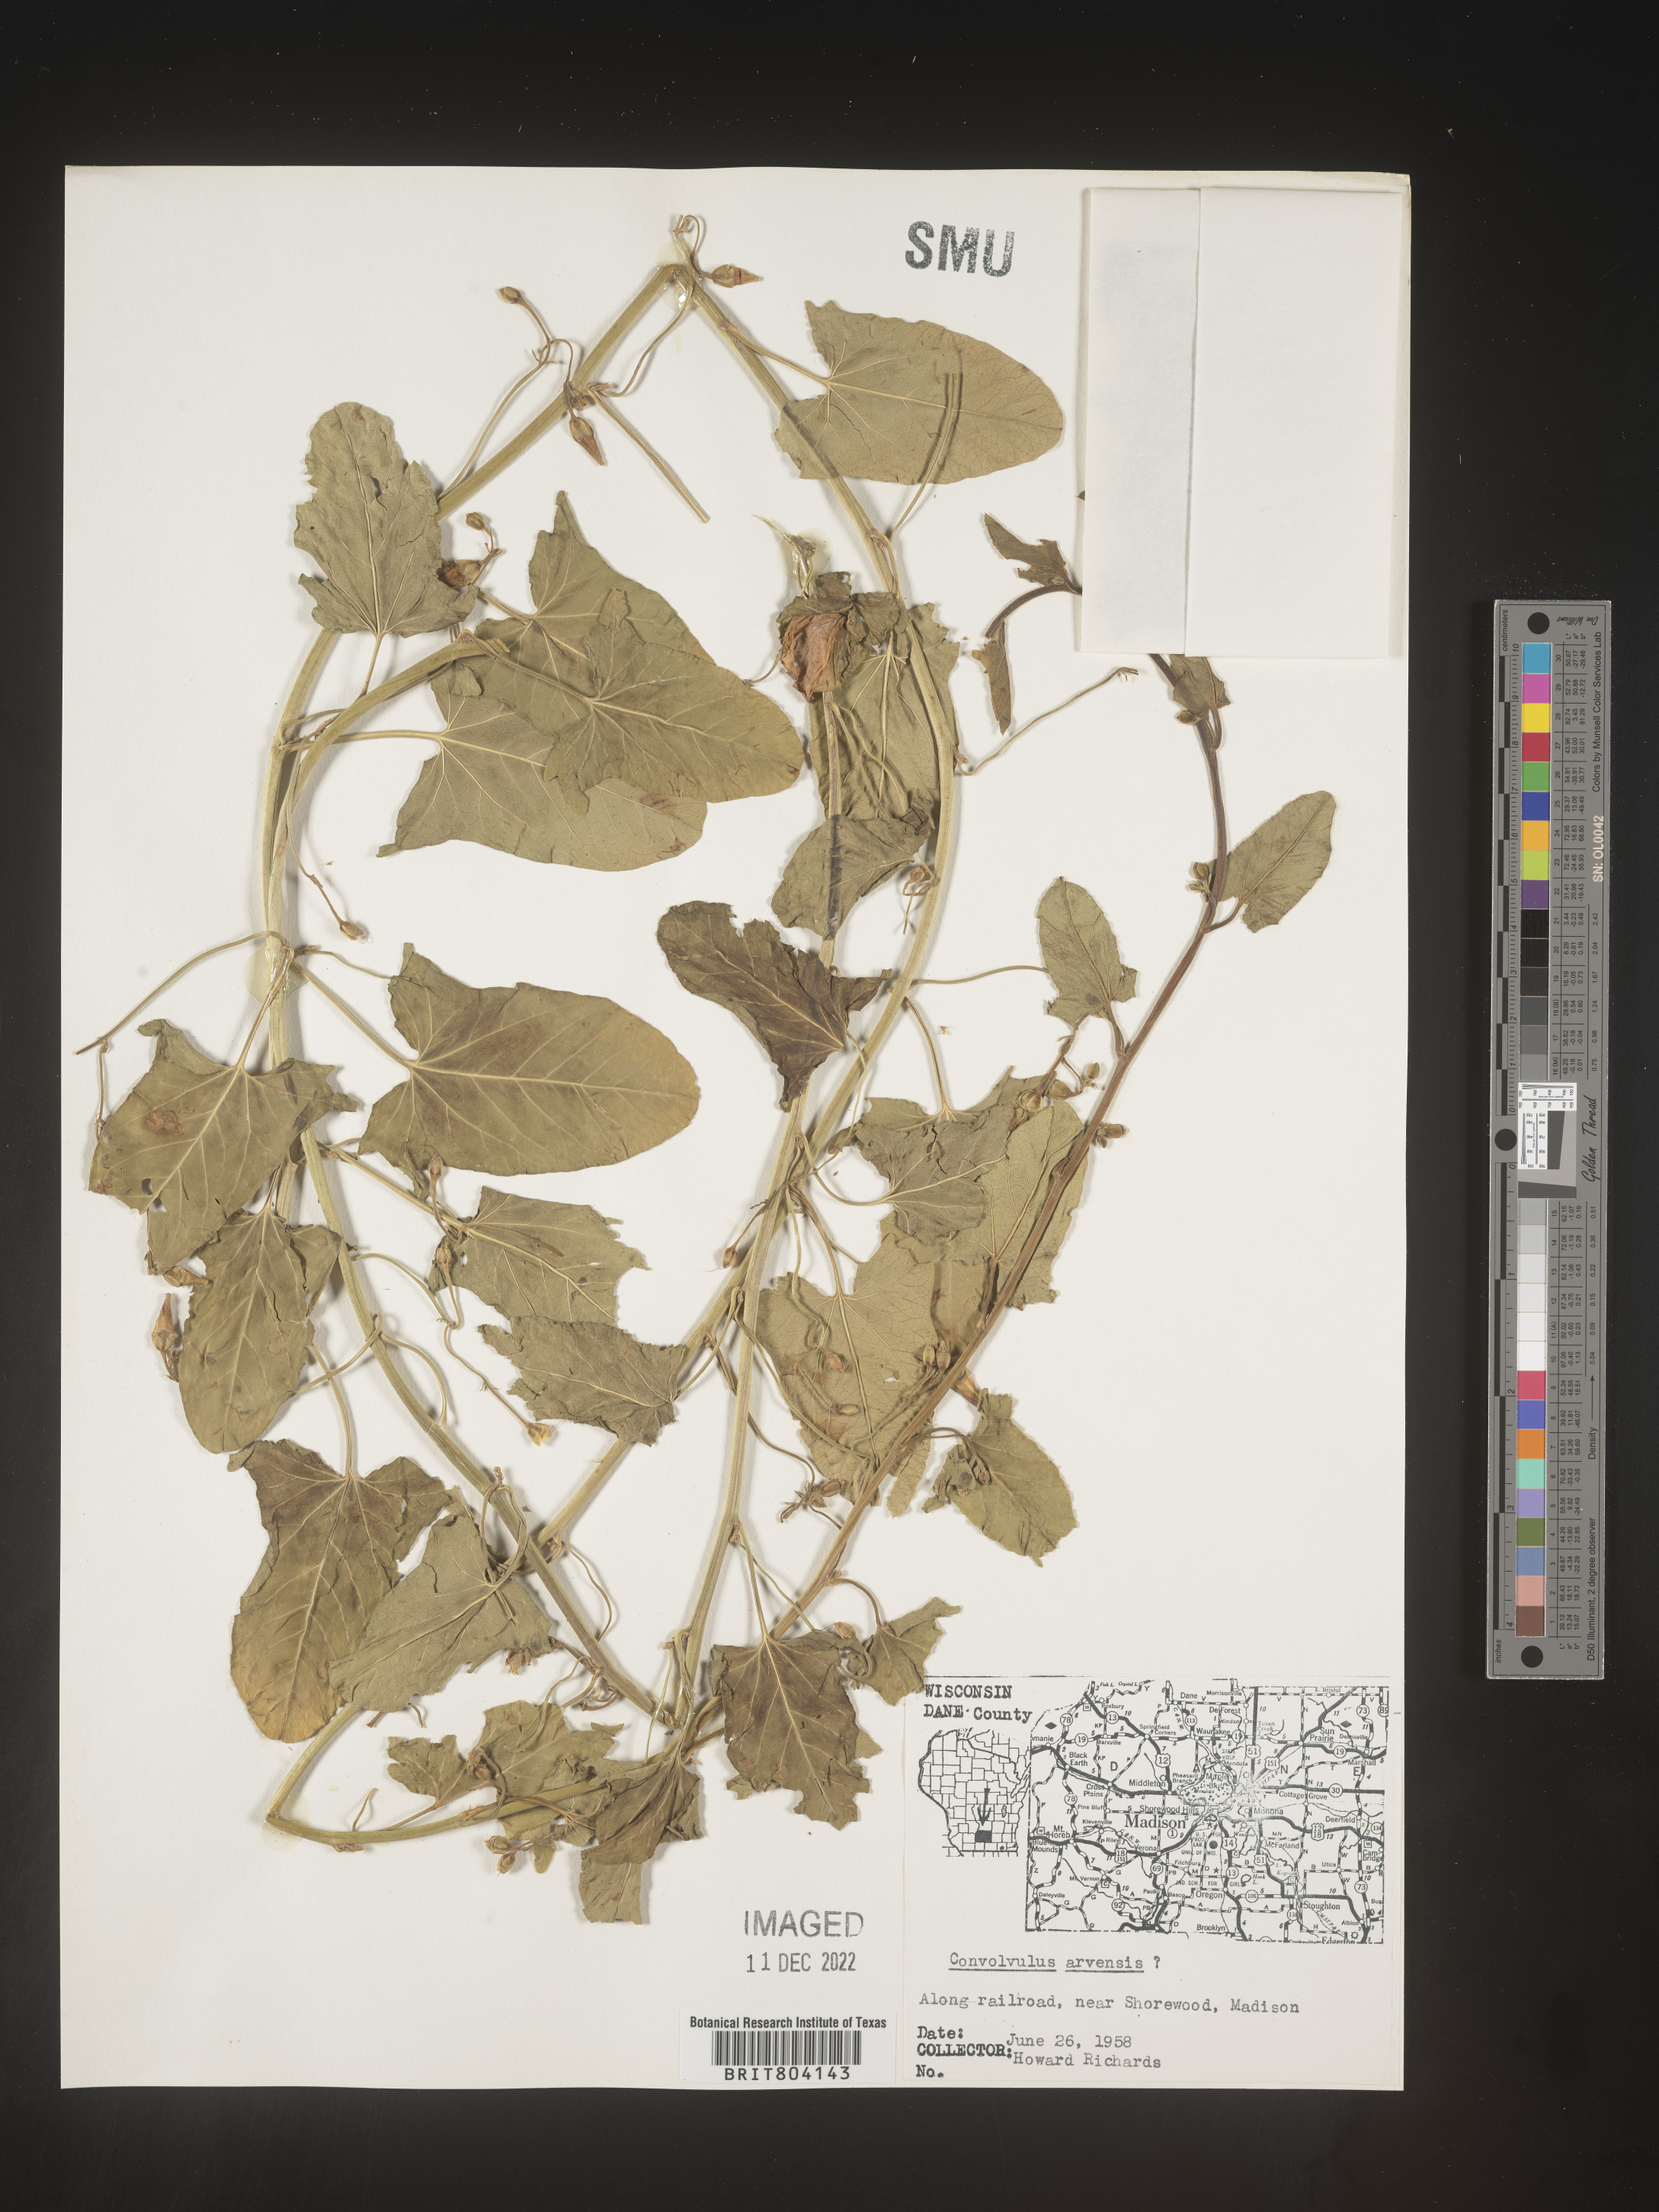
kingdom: Plantae
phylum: Tracheophyta
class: Magnoliopsida
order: Solanales
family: Convolvulaceae
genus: Convolvulus
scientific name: Convolvulus arvensis
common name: Field bindweed
